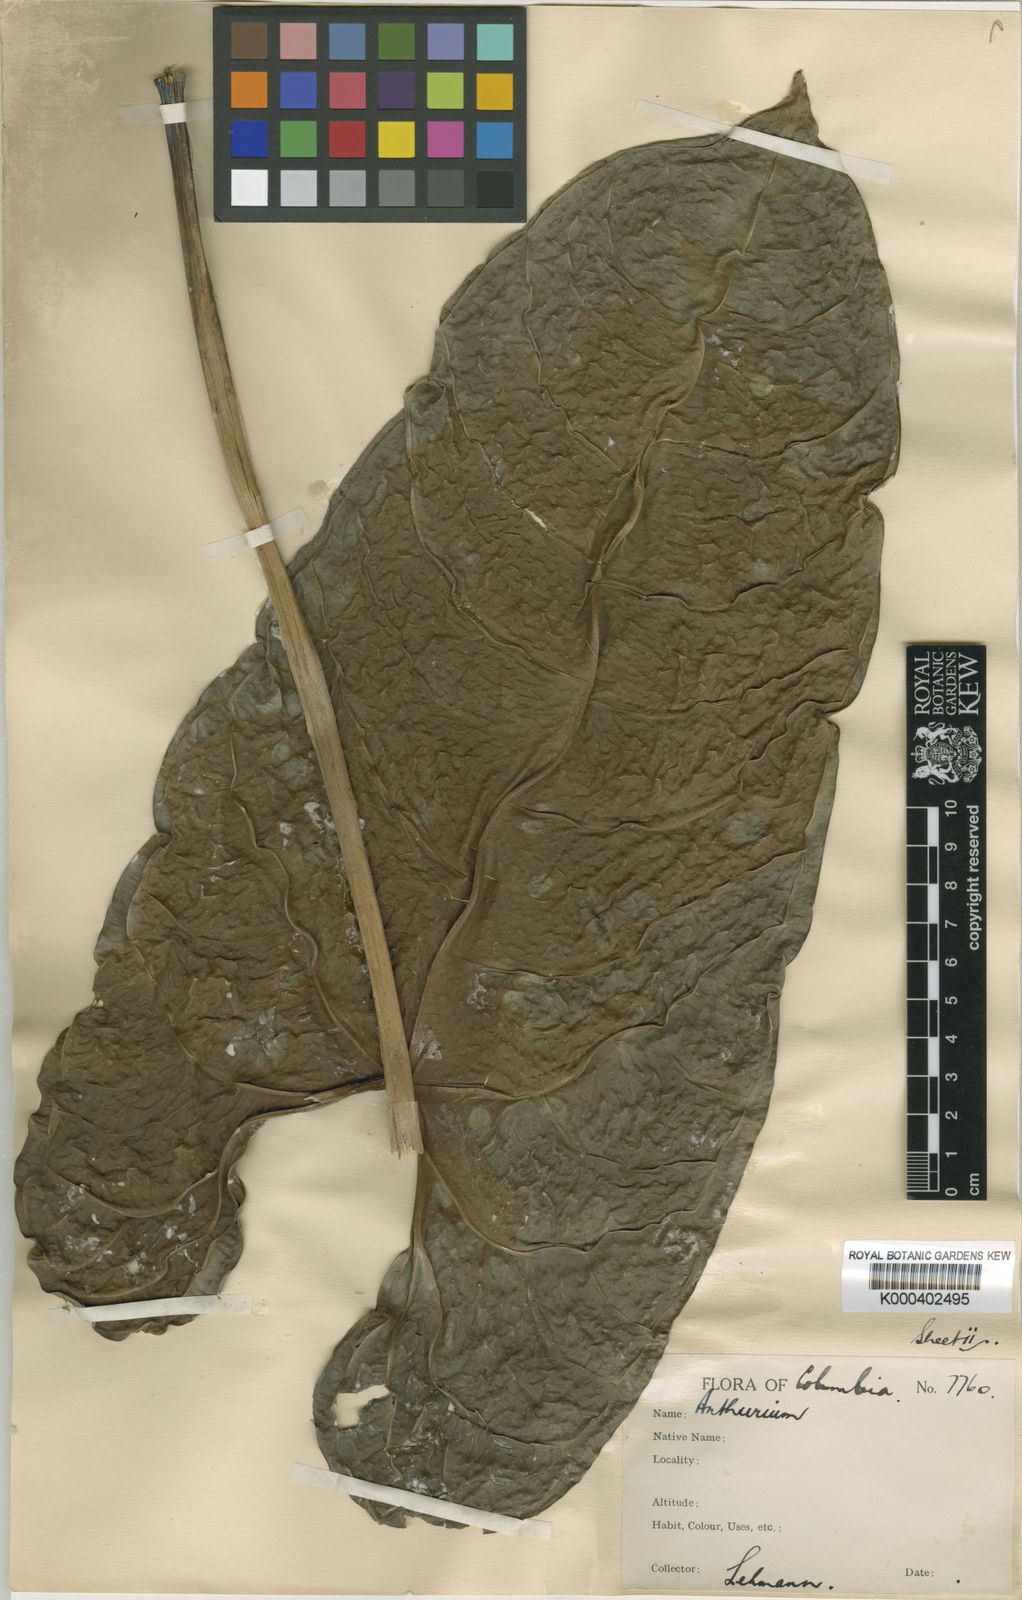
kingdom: Plantae
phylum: Tracheophyta
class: Liliopsida
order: Alismatales
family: Araceae
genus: Anthurium
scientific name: Anthurium longistamineum
